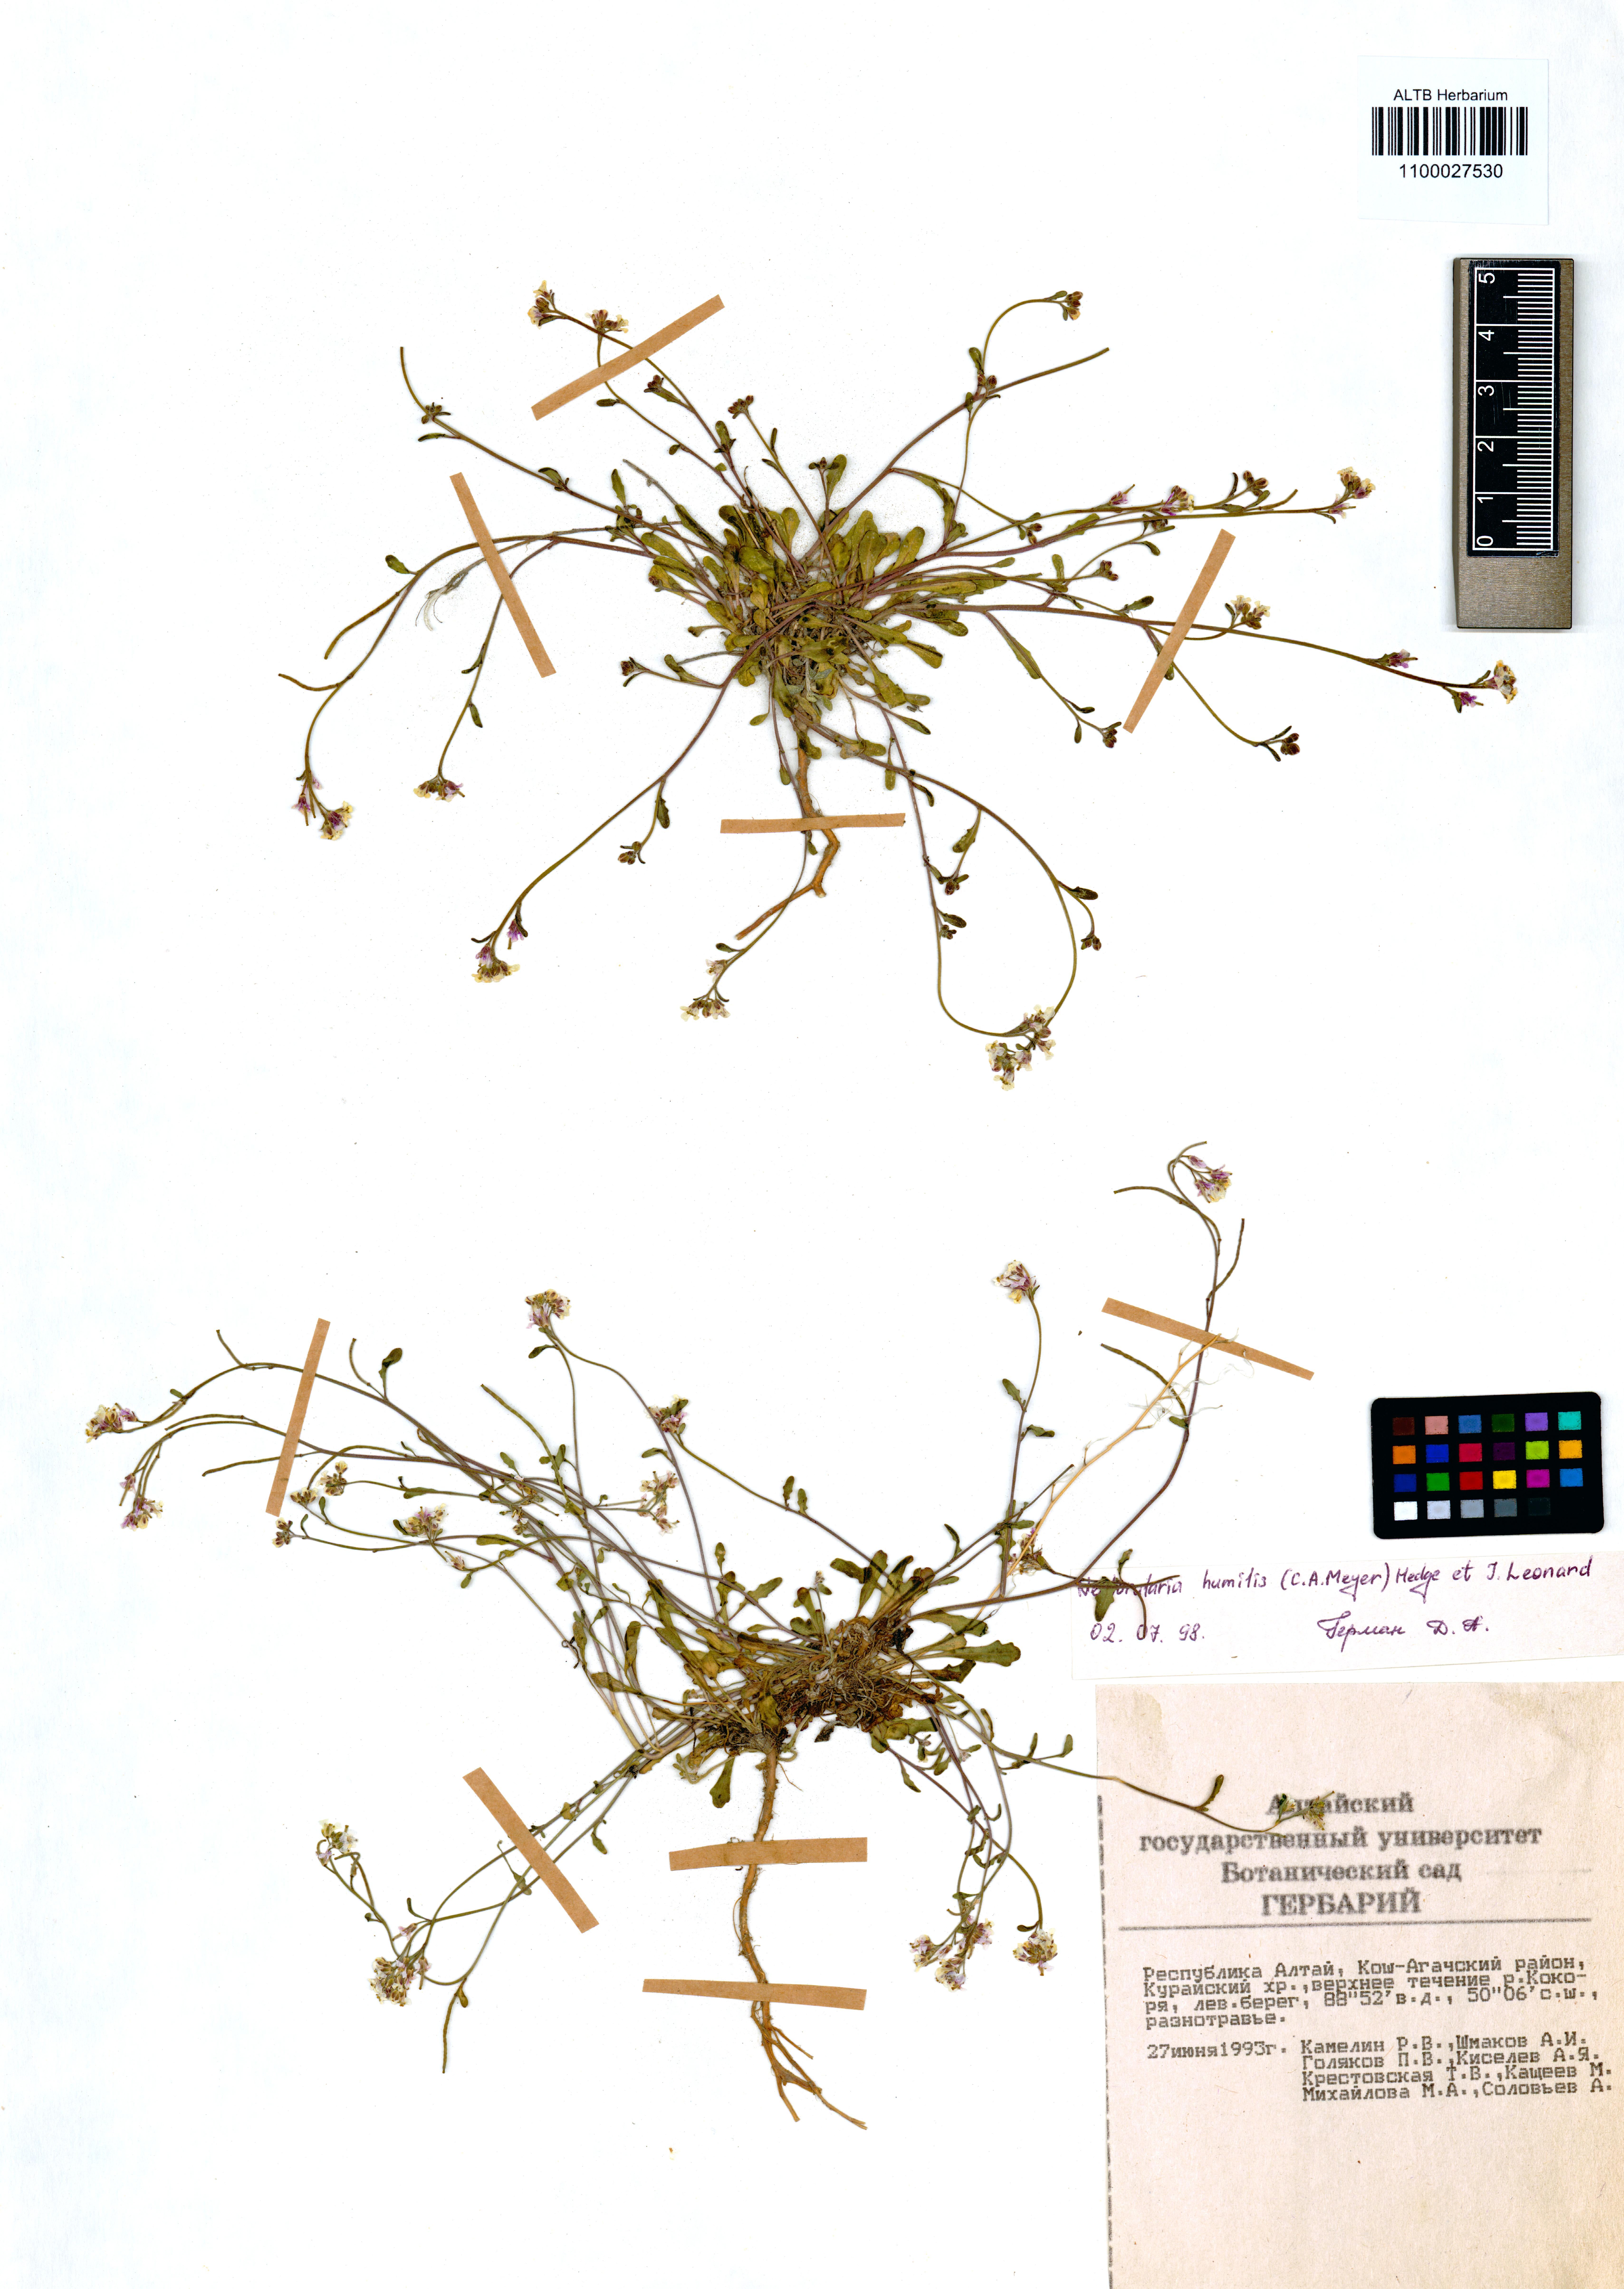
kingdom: Plantae
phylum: Tracheophyta
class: Magnoliopsida
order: Brassicales
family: Brassicaceae
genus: Braya
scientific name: Braya humilis
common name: Alpine northern rockcress
